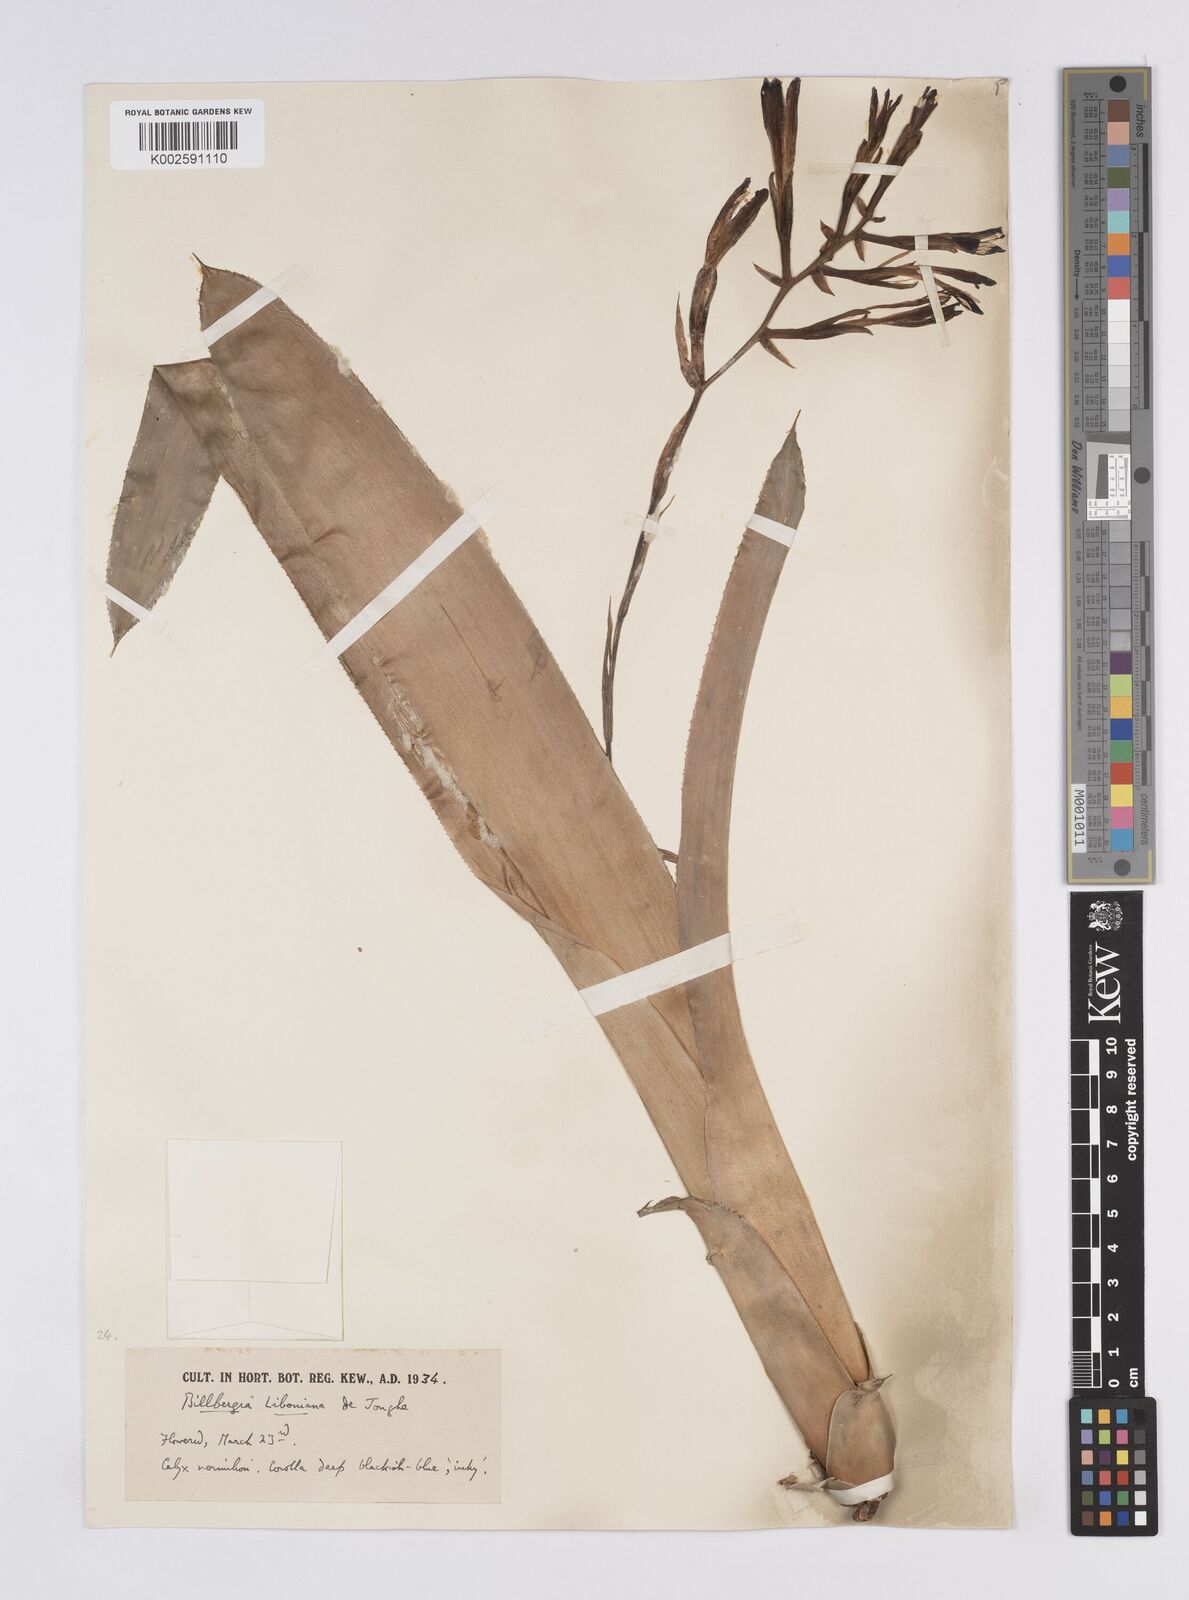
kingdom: Plantae
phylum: Tracheophyta
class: Liliopsida
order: Poales
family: Bromeliaceae
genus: Quesnelia
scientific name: Quesnelia liboniana
